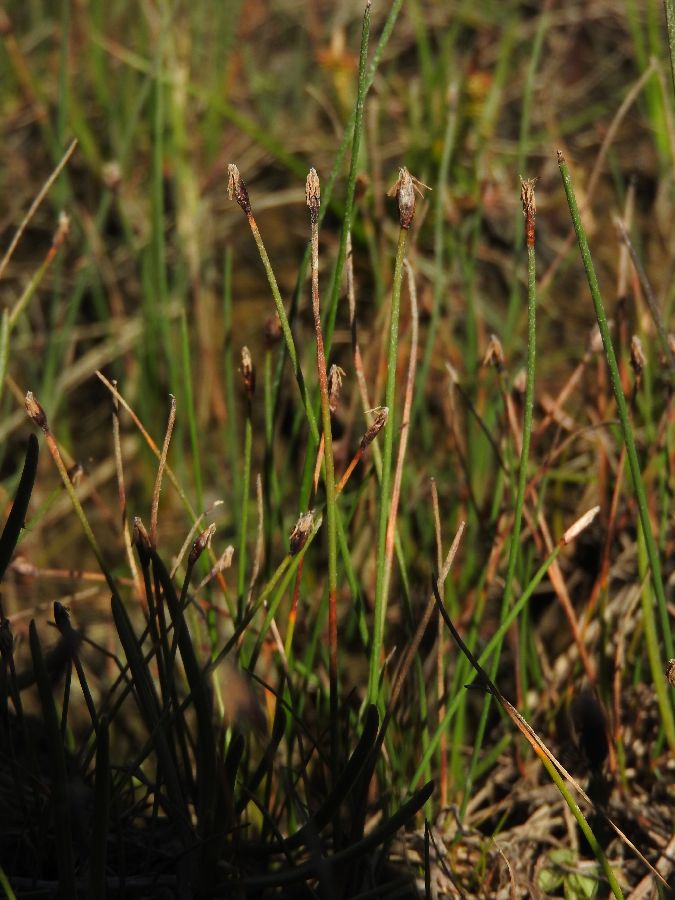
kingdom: Plantae
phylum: Tracheophyta
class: Liliopsida
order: Poales
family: Cyperaceae
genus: Eleocharis
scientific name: Eleocharis quinqueflora
